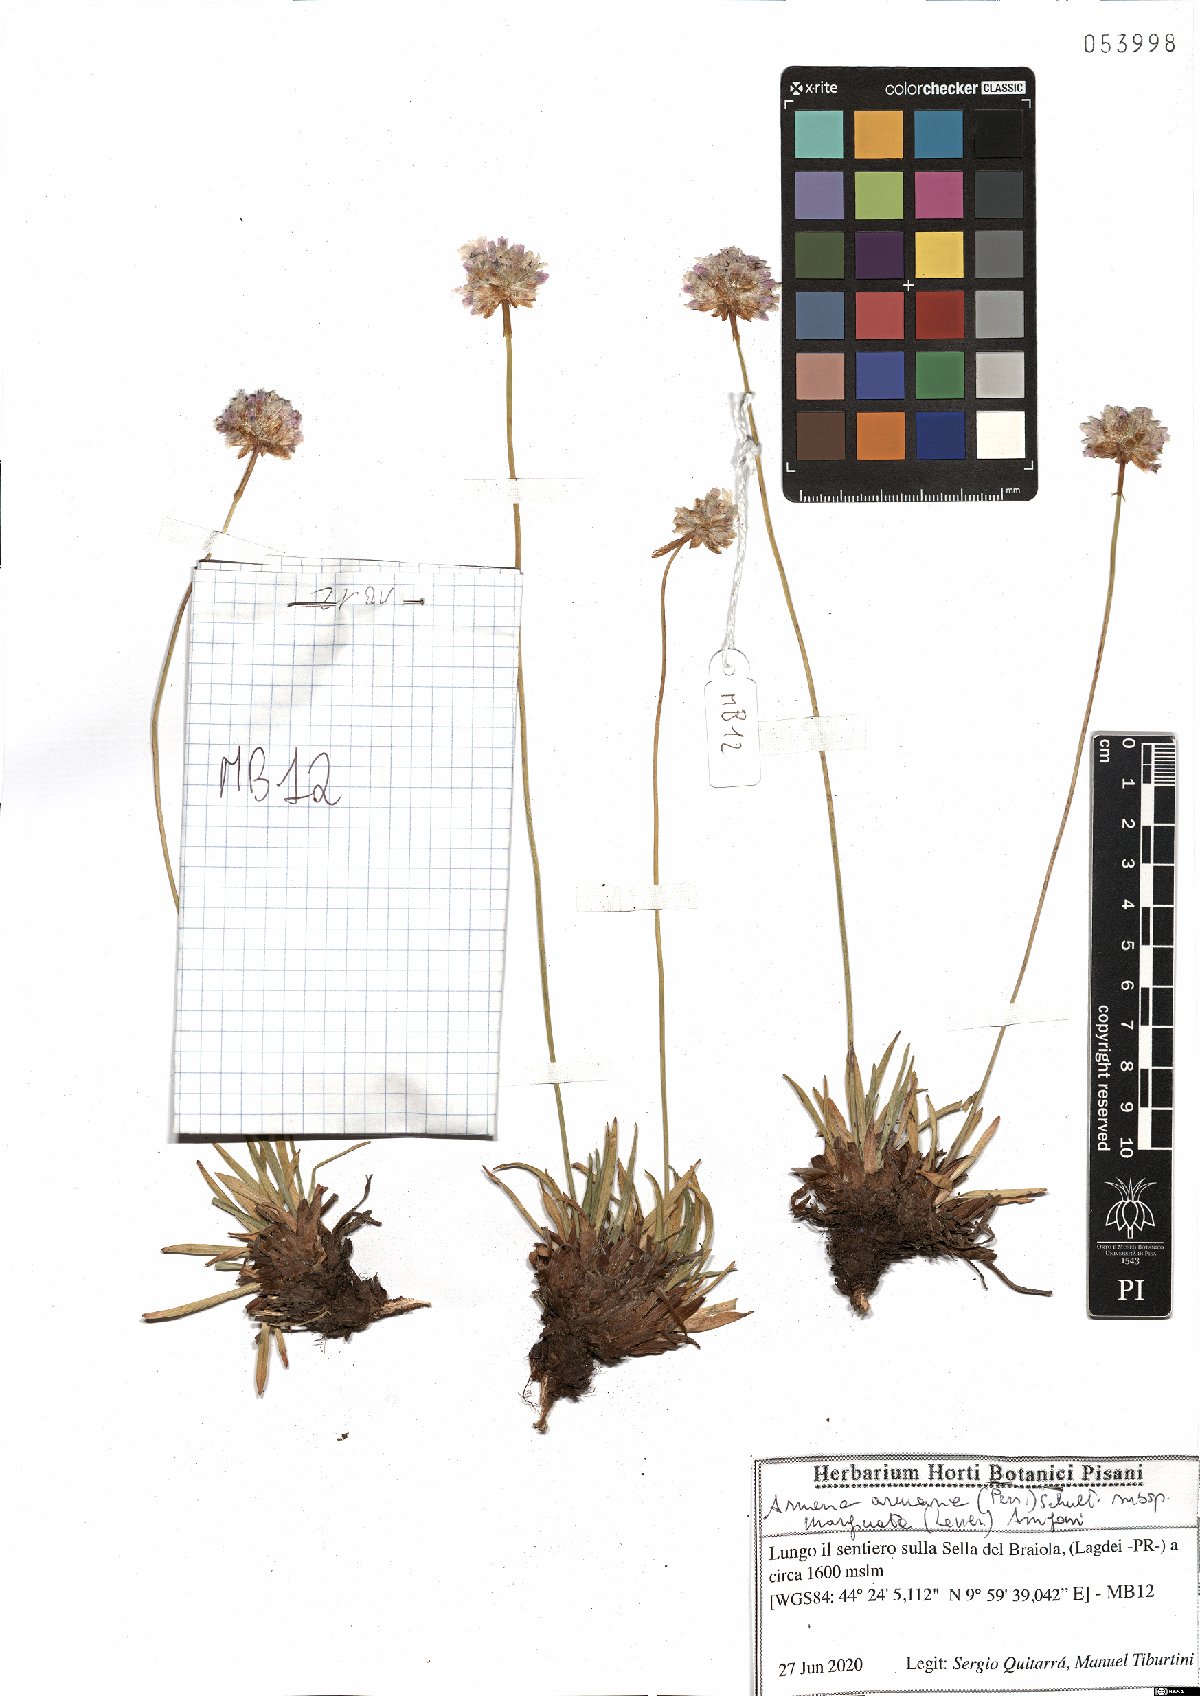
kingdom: Plantae
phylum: Tracheophyta
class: Magnoliopsida
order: Caryophyllales
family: Plumbaginaceae
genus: Armeria
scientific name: Armeria arenaria
